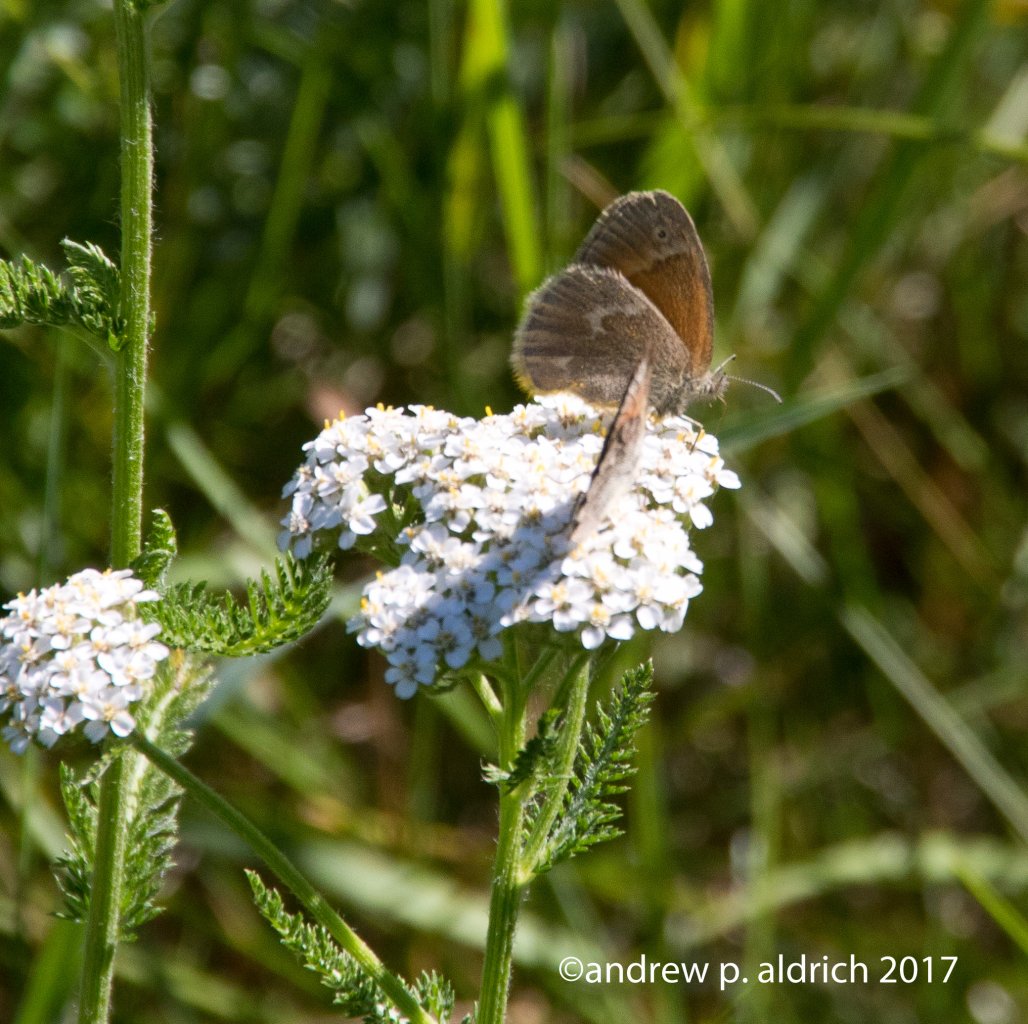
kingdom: Animalia
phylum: Arthropoda
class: Insecta
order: Lepidoptera
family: Nymphalidae
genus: Coenonympha
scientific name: Coenonympha tullia
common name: Large Heath
